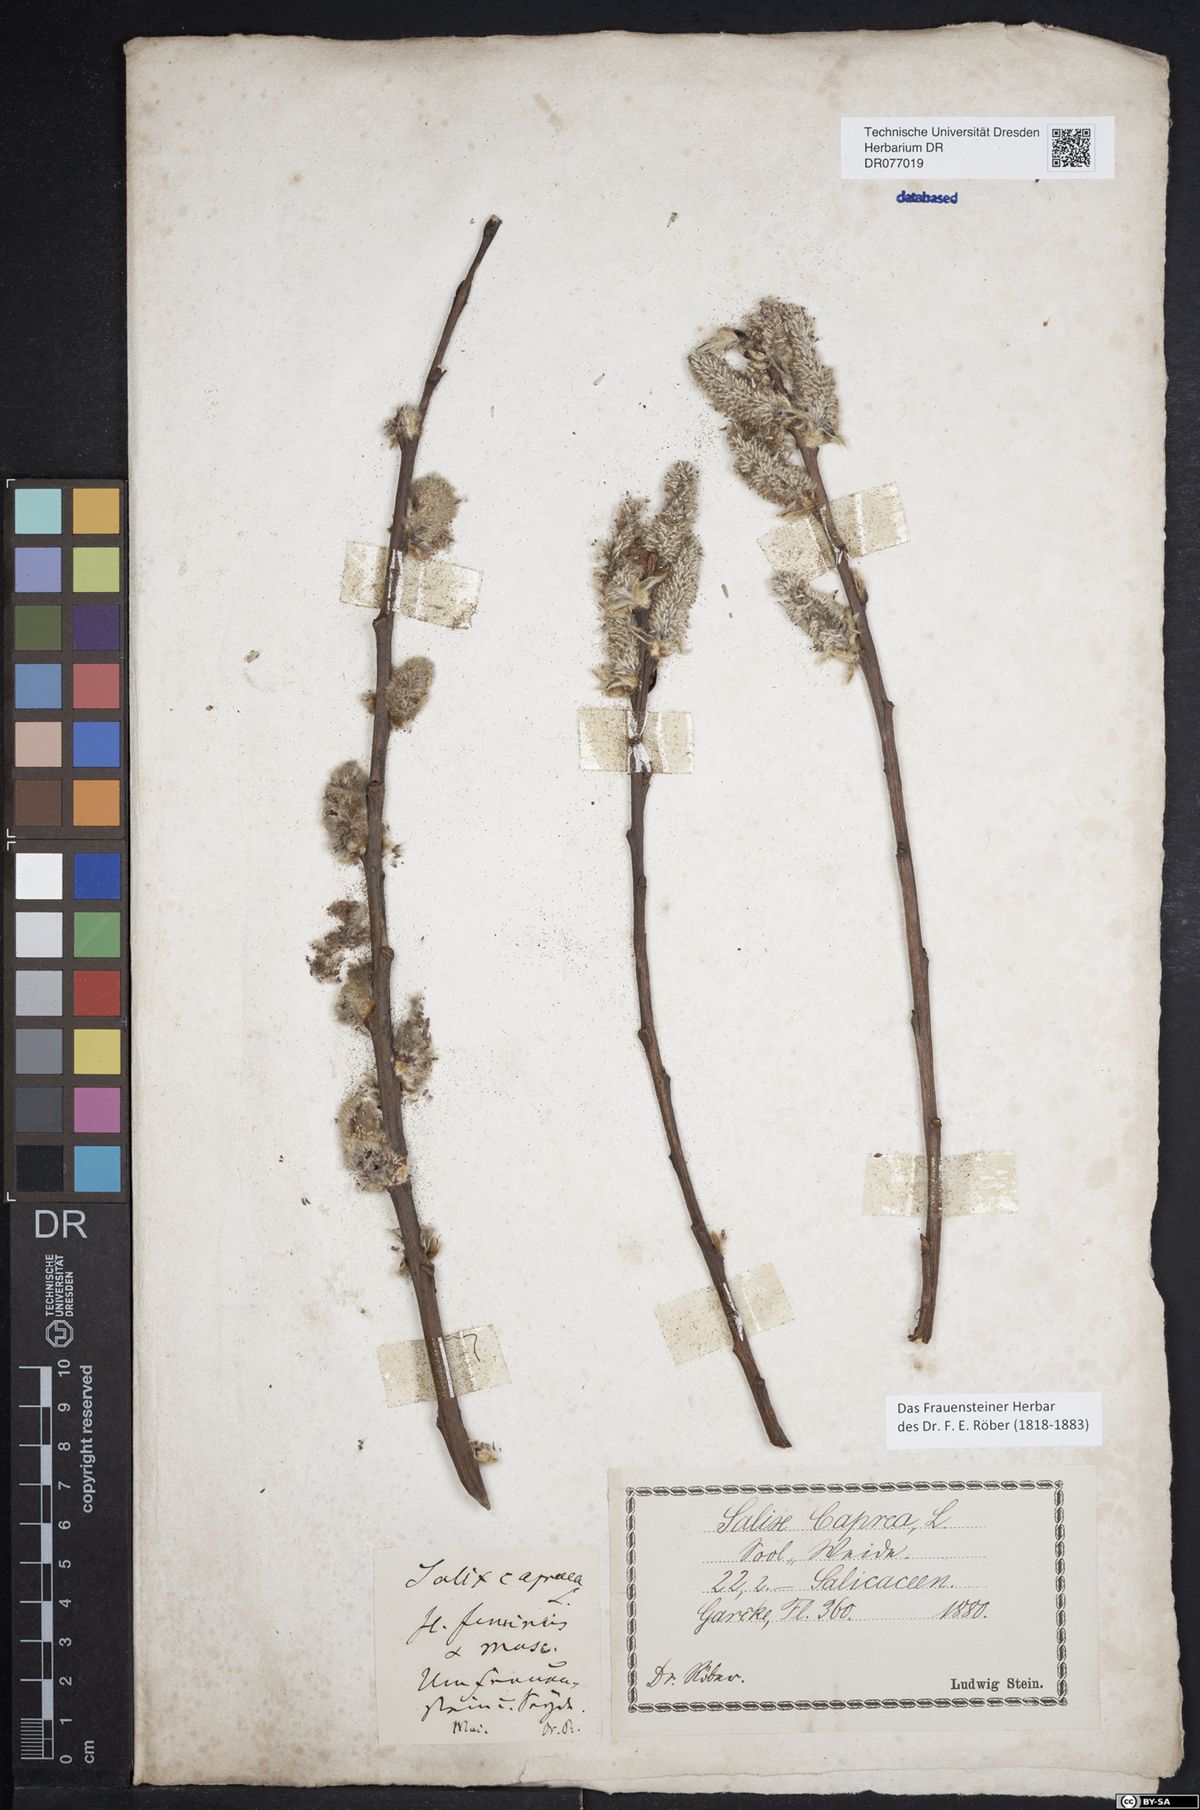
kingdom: Plantae
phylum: Tracheophyta
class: Magnoliopsida
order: Malpighiales
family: Salicaceae
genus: Salix
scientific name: Salix caprea
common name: Goat willow
